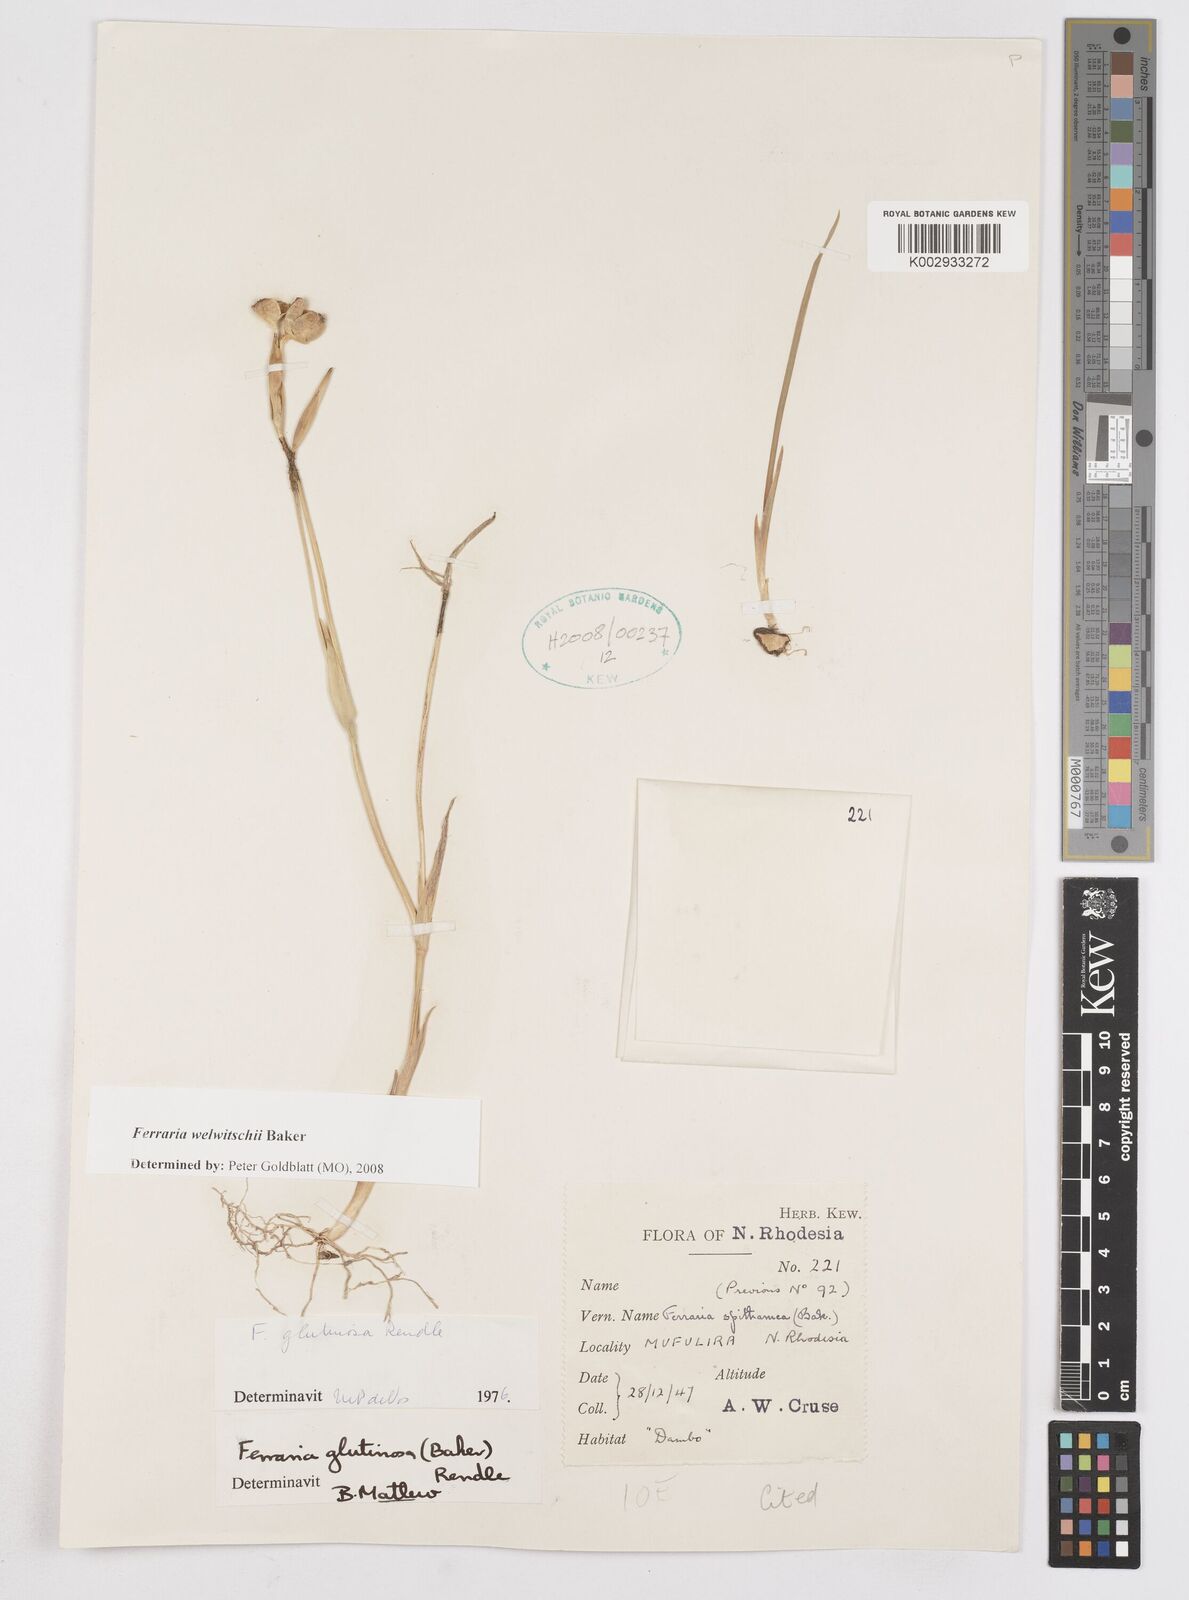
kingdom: Plantae
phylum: Tracheophyta
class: Liliopsida
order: Asparagales
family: Iridaceae
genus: Ferraria
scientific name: Ferraria welwitschii
